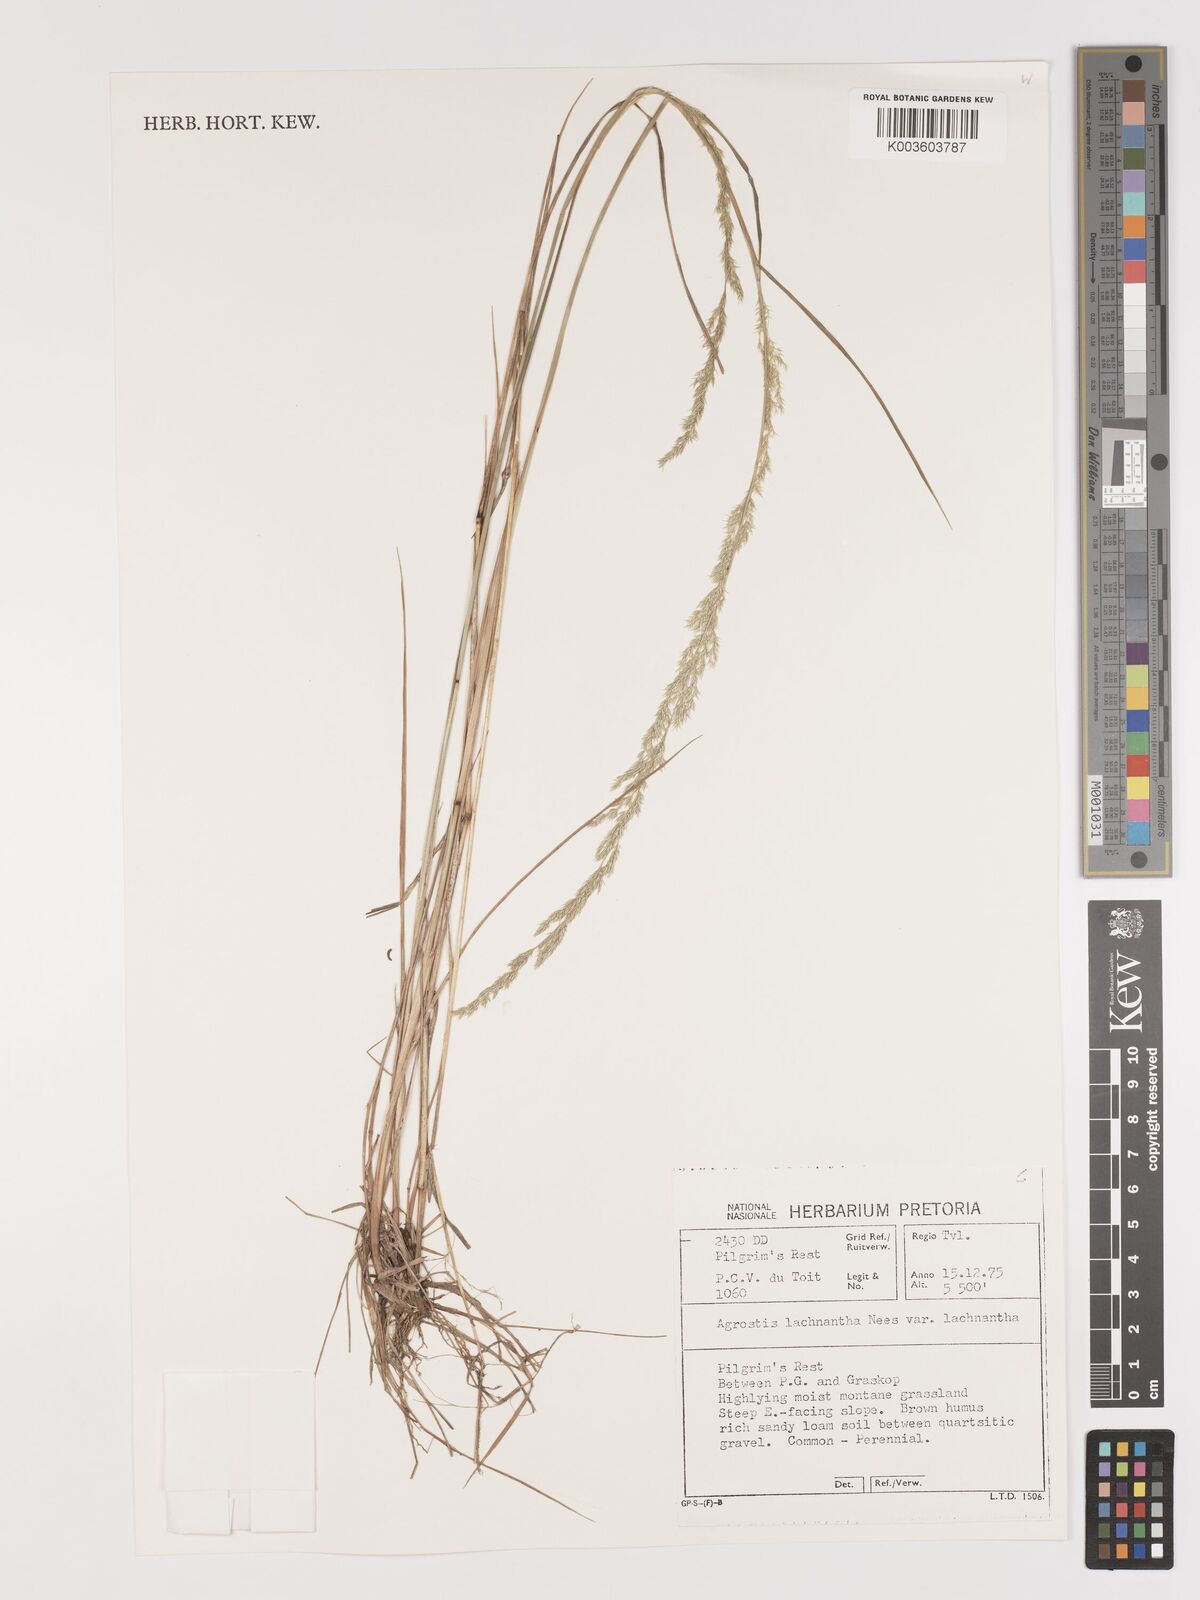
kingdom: Plantae
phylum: Tracheophyta
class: Liliopsida
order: Poales
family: Poaceae
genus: Lachnagrostis
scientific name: Lachnagrostis lachnantha
